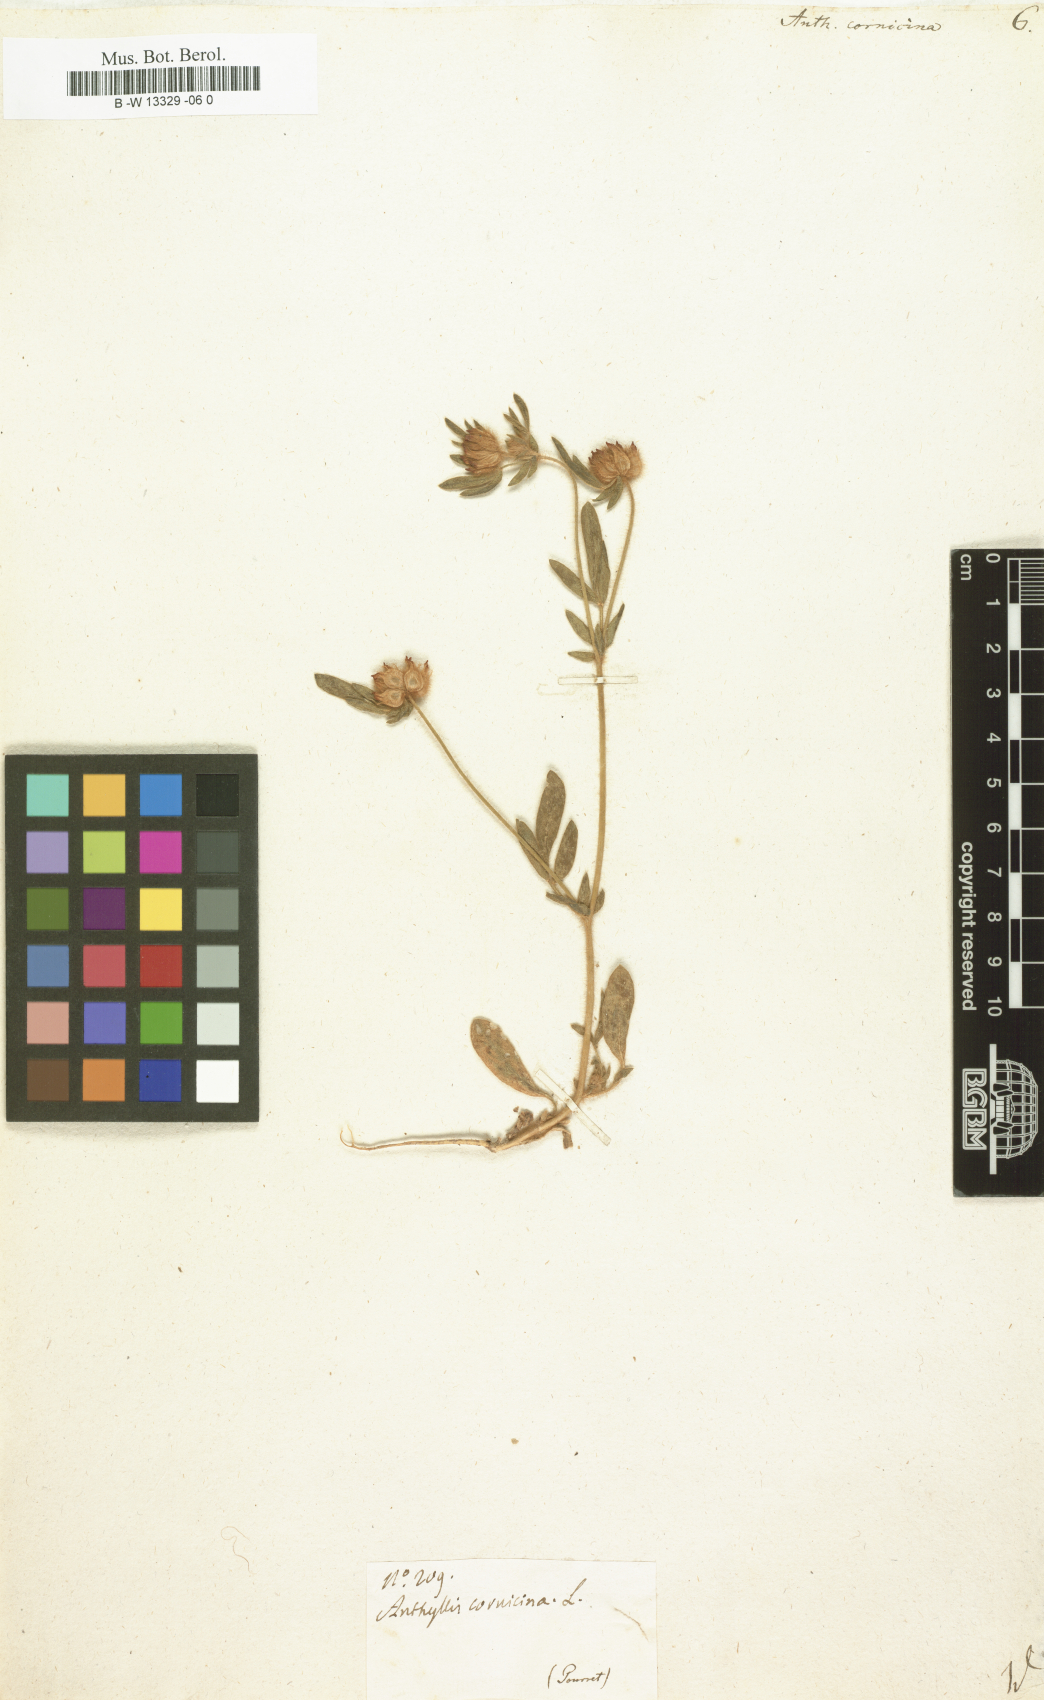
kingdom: Plantae
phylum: Tracheophyta
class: Magnoliopsida
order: Fabales
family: Fabaceae
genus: Anthyllis
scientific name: Anthyllis cornicina
